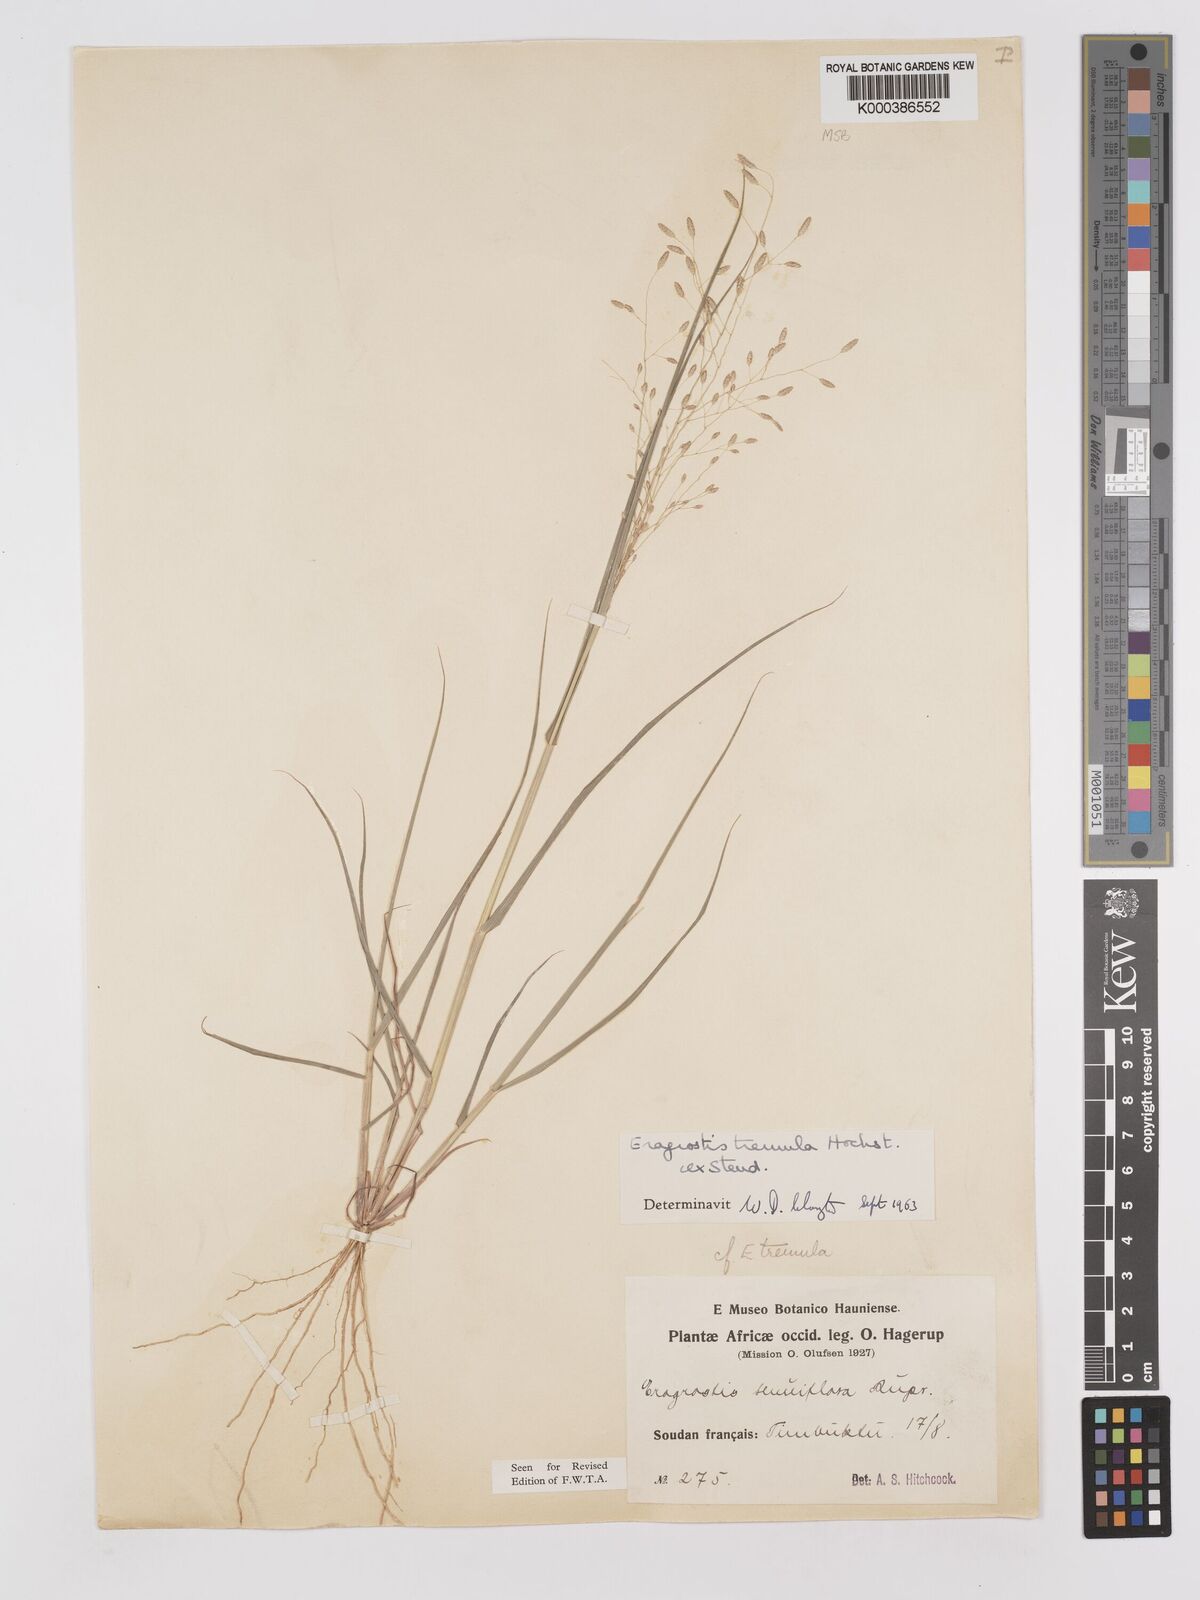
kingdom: Plantae
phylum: Tracheophyta
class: Liliopsida
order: Poales
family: Poaceae
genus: Eragrostis
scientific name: Eragrostis tremula
